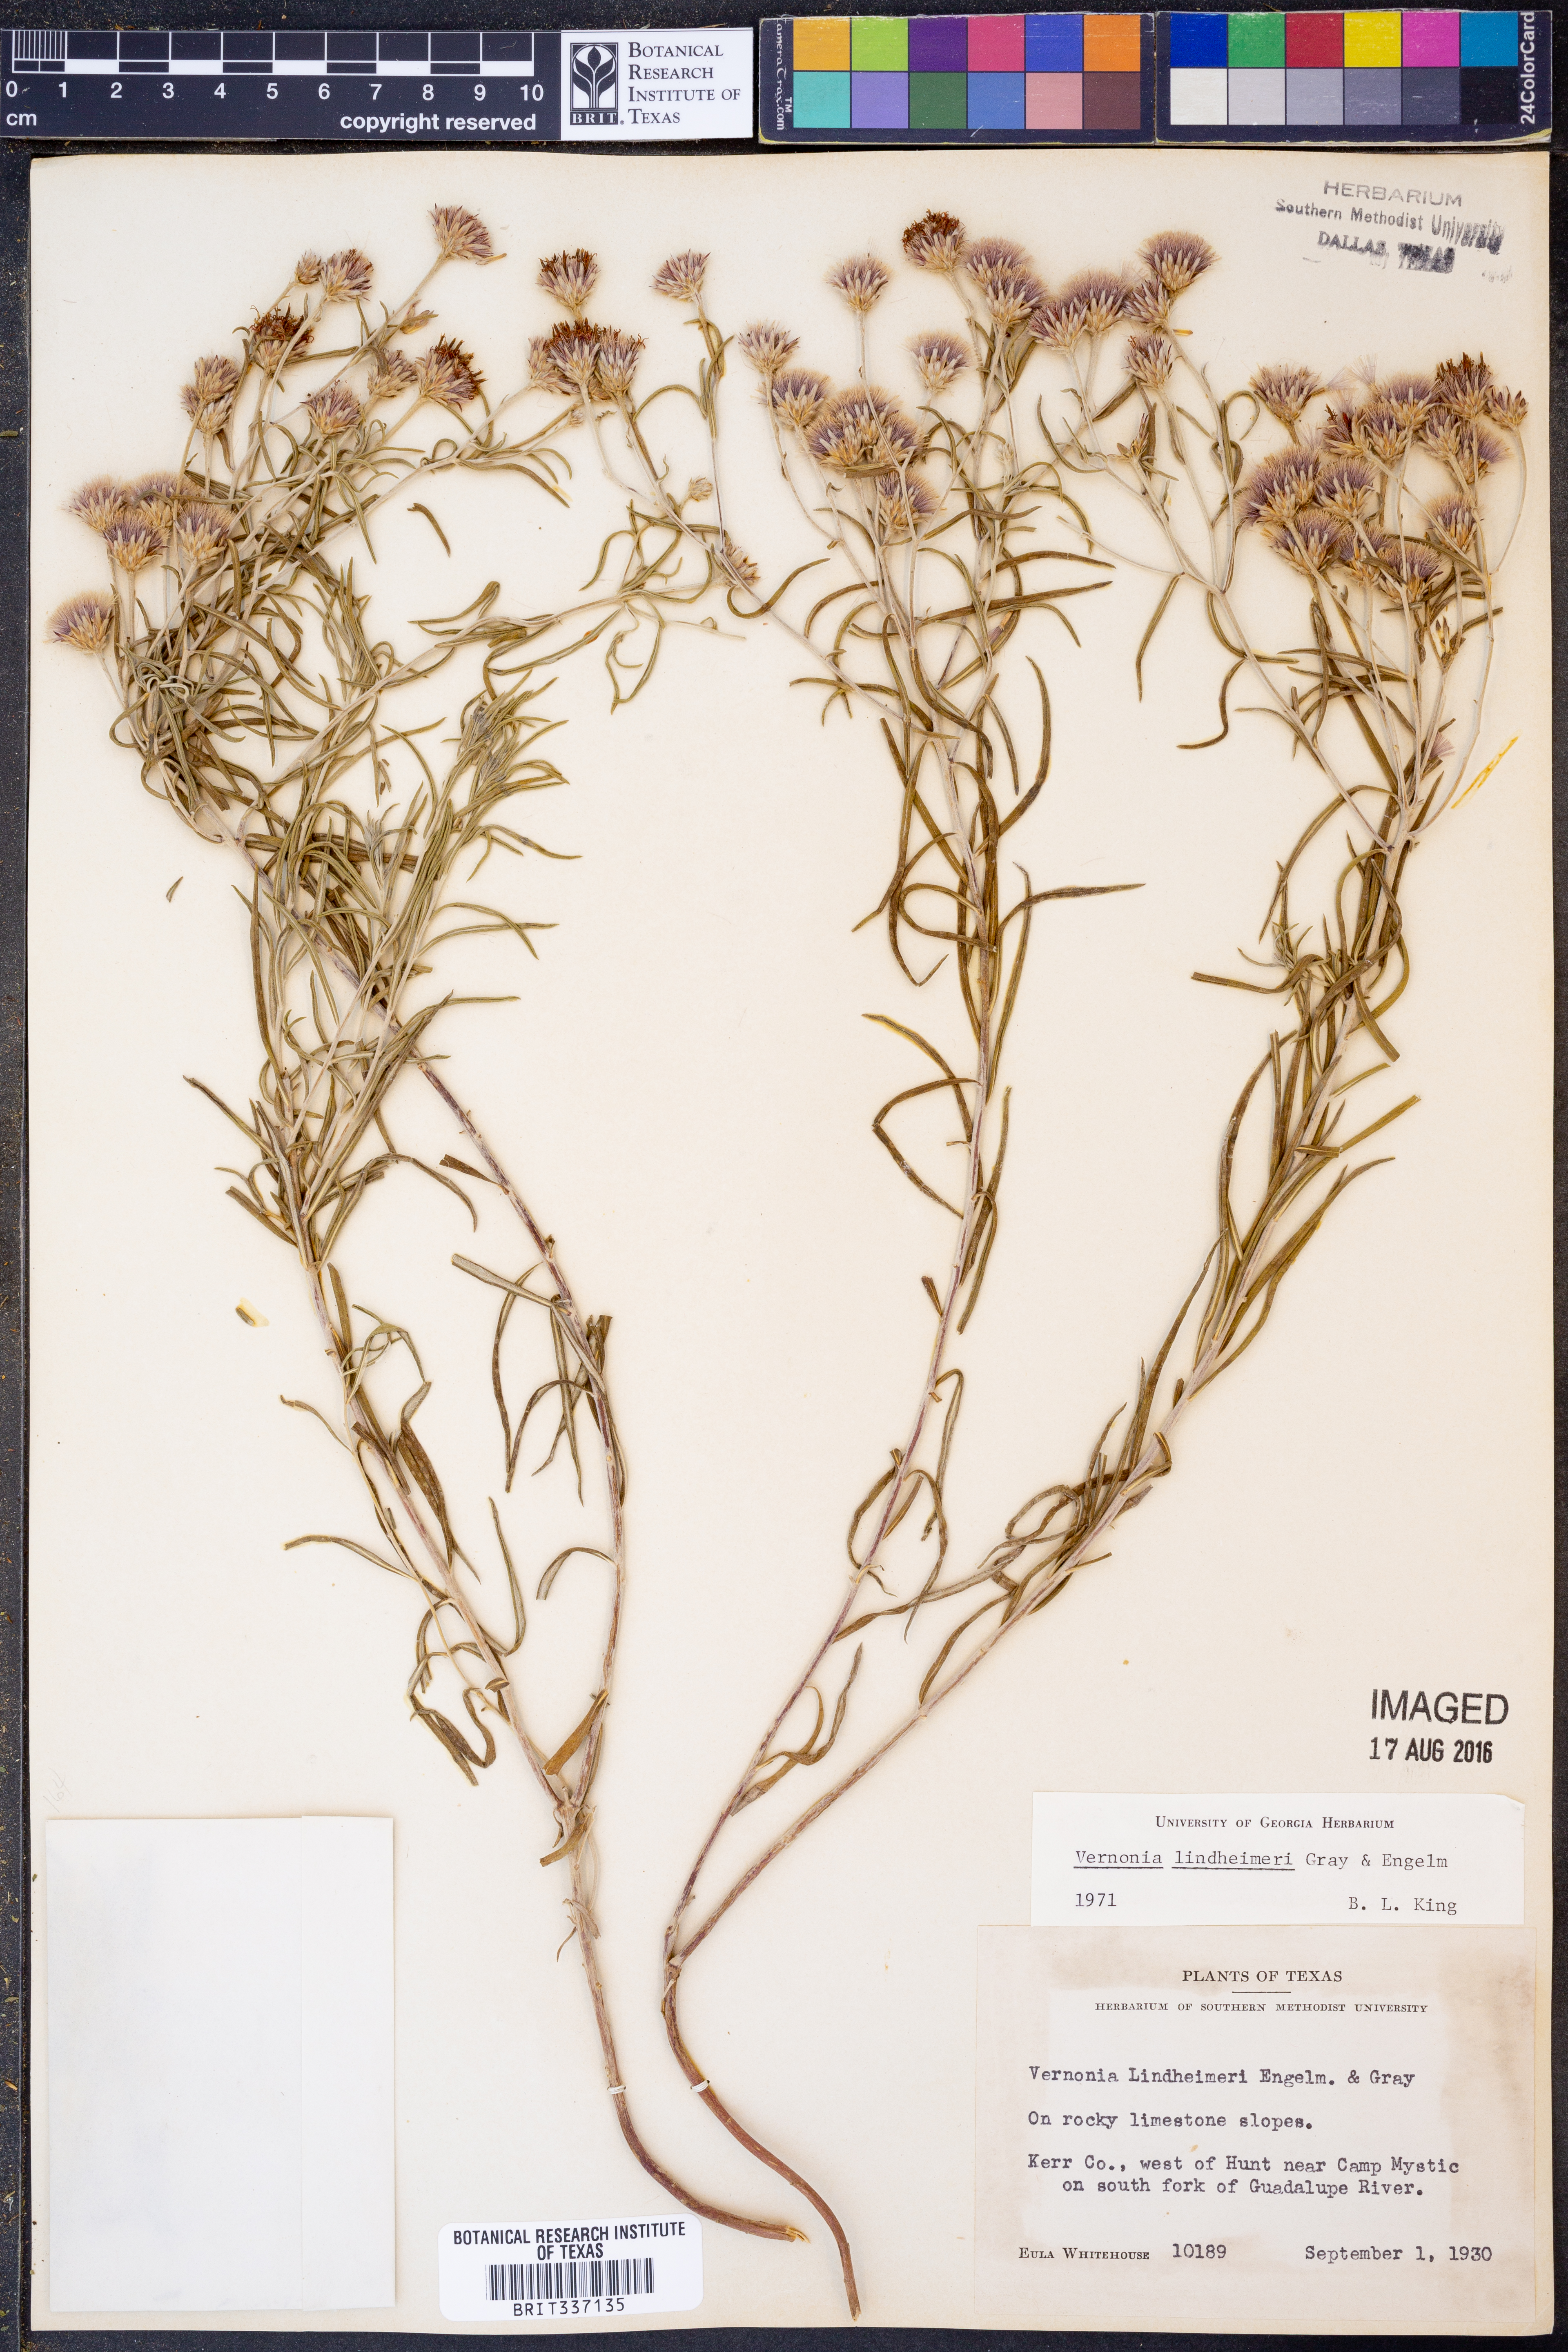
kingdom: Plantae
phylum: Tracheophyta
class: Magnoliopsida
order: Asterales
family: Asteraceae
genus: Vernonia
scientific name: Vernonia lindheimeri
